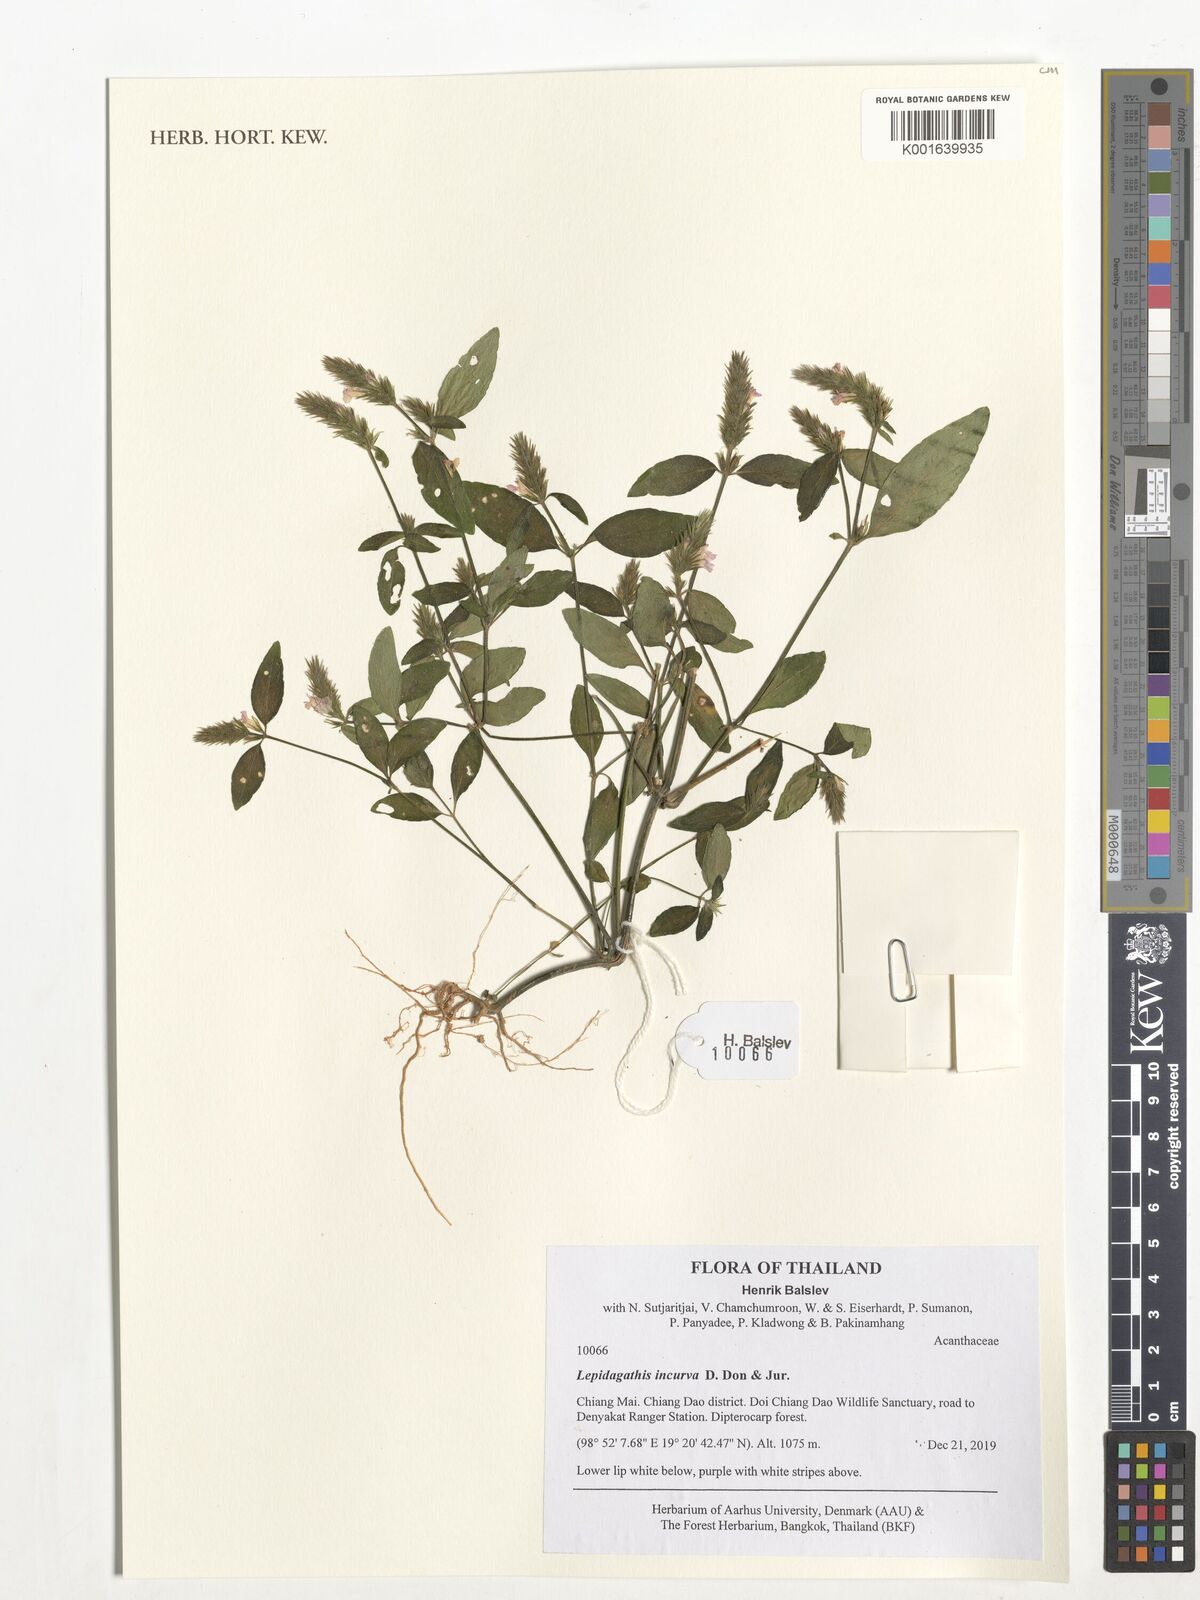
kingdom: Plantae
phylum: Tracheophyta
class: Magnoliopsida
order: Lamiales
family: Acanthaceae
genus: Lepidagathis
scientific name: Lepidagathis incurva
